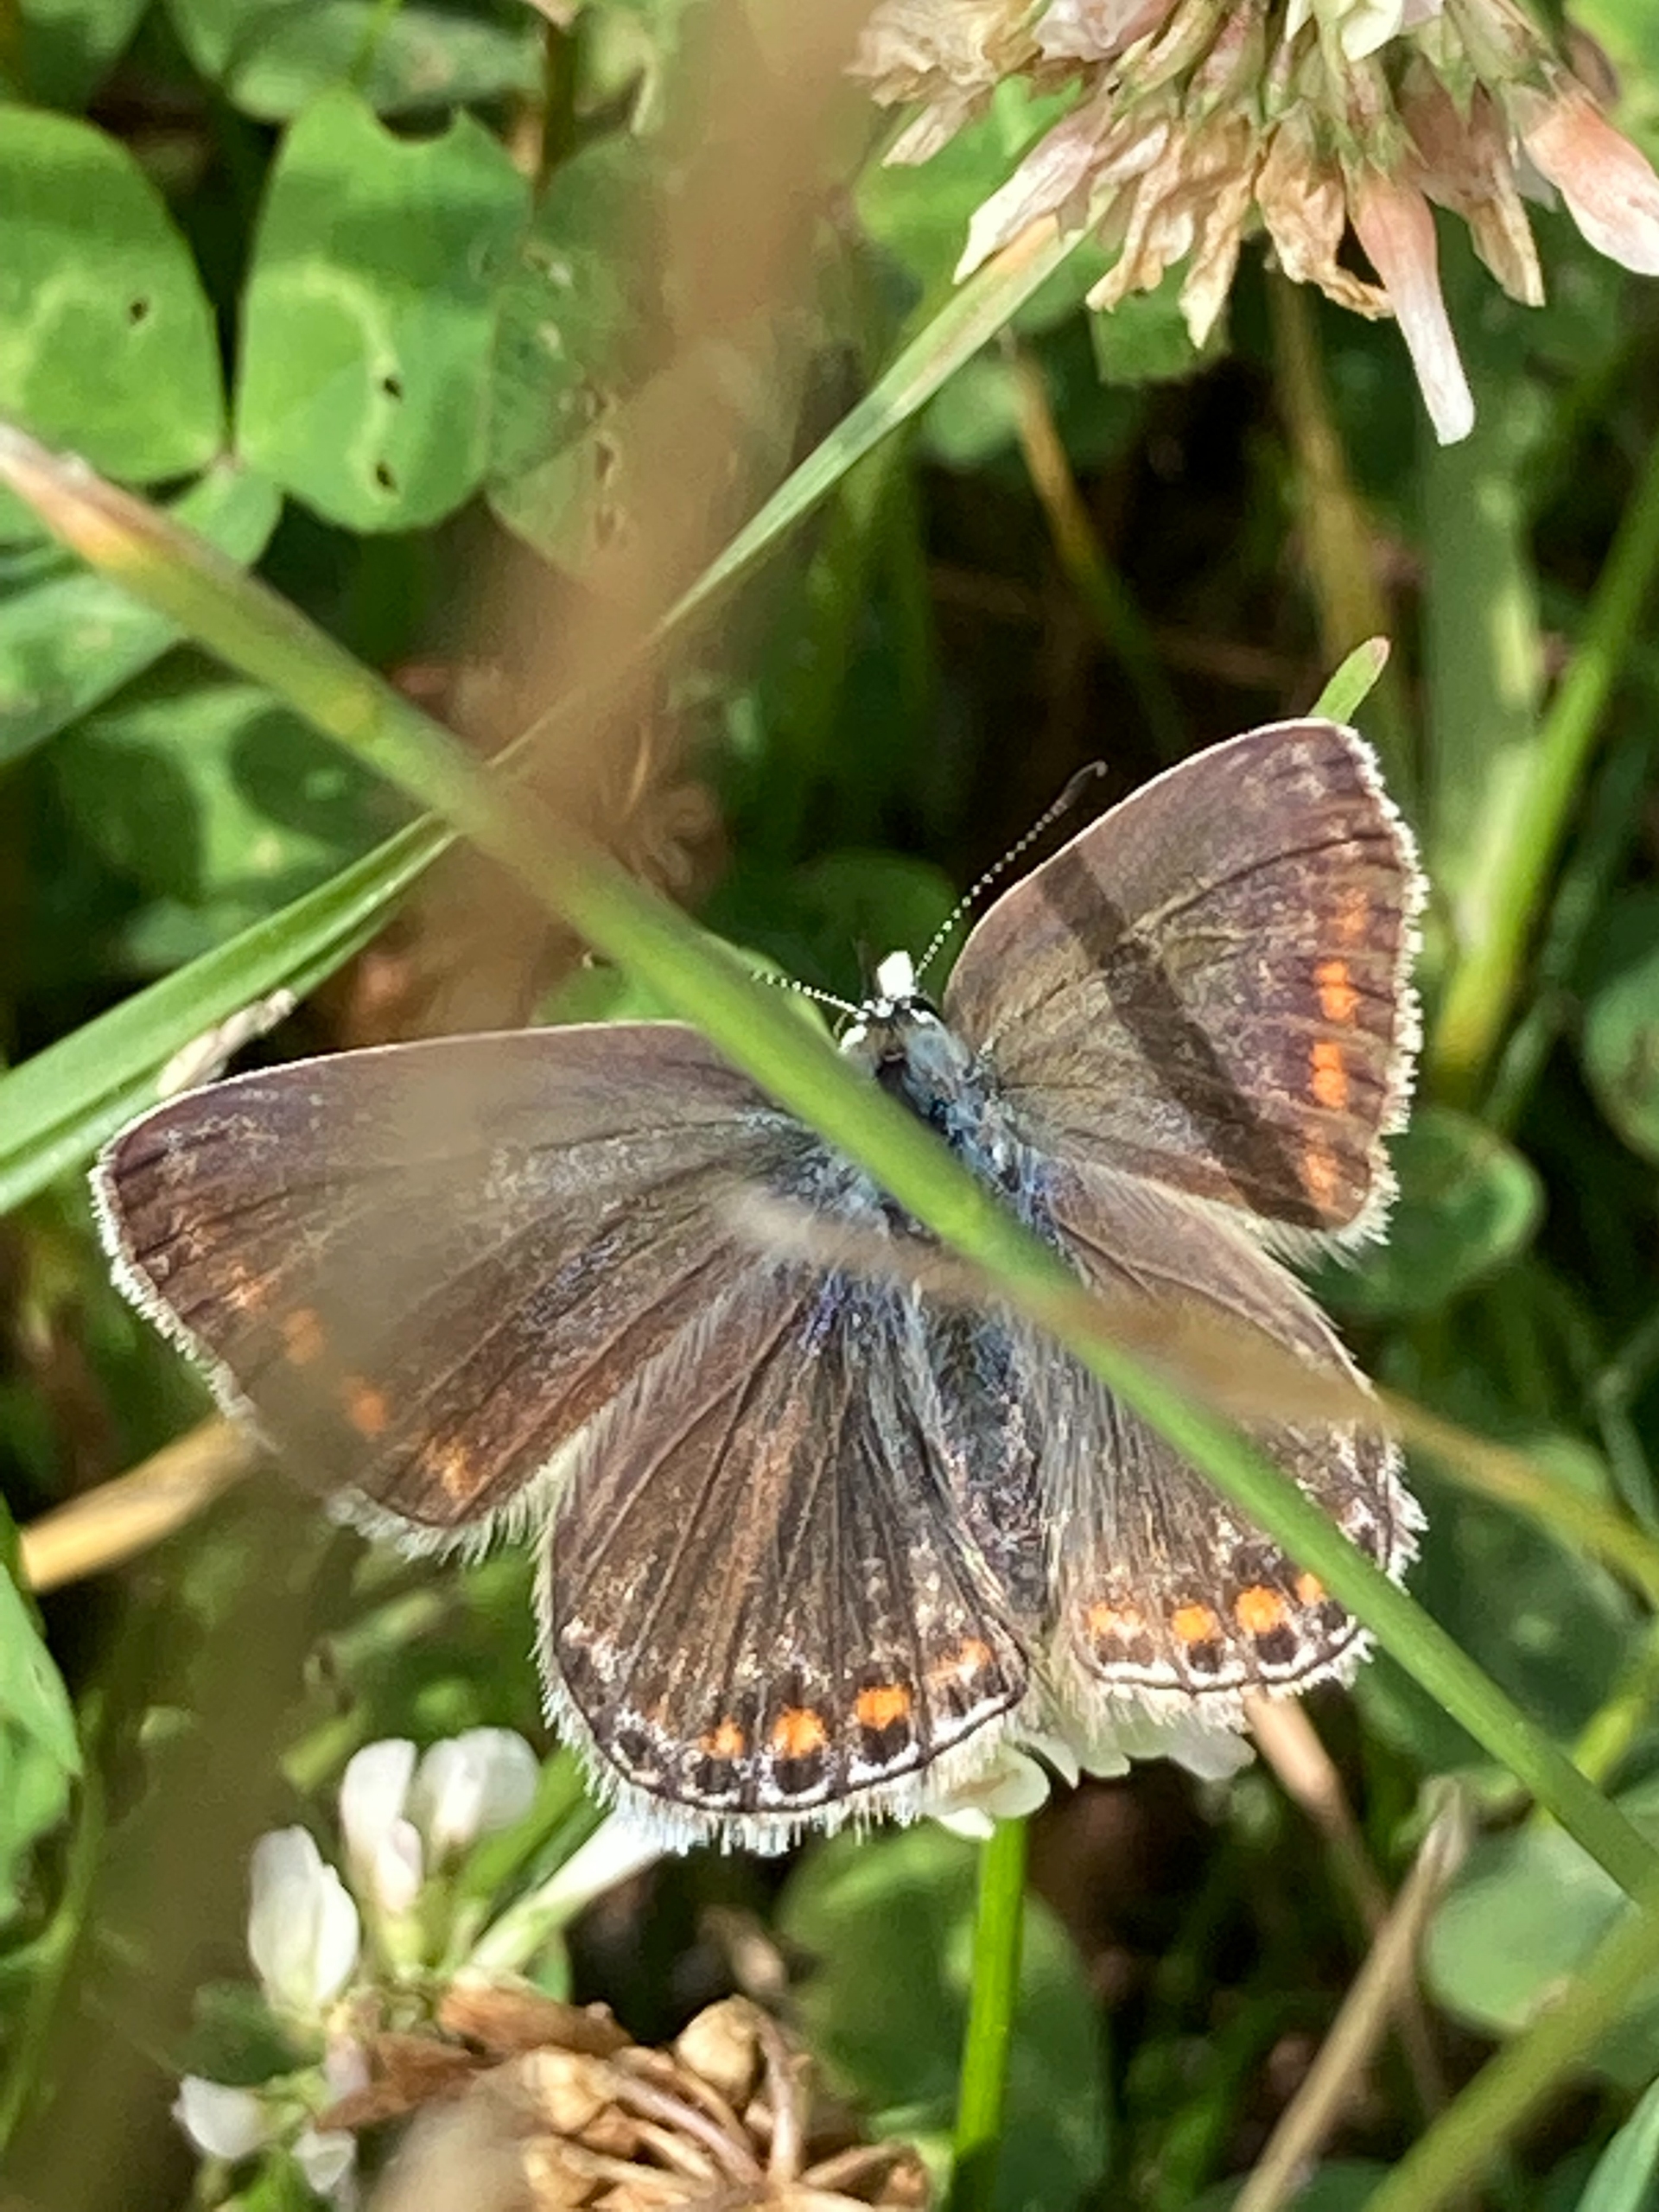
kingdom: Animalia
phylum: Arthropoda
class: Insecta
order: Lepidoptera
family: Lycaenidae
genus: Polyommatus
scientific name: Polyommatus icarus
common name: Almindelig blåfugl
